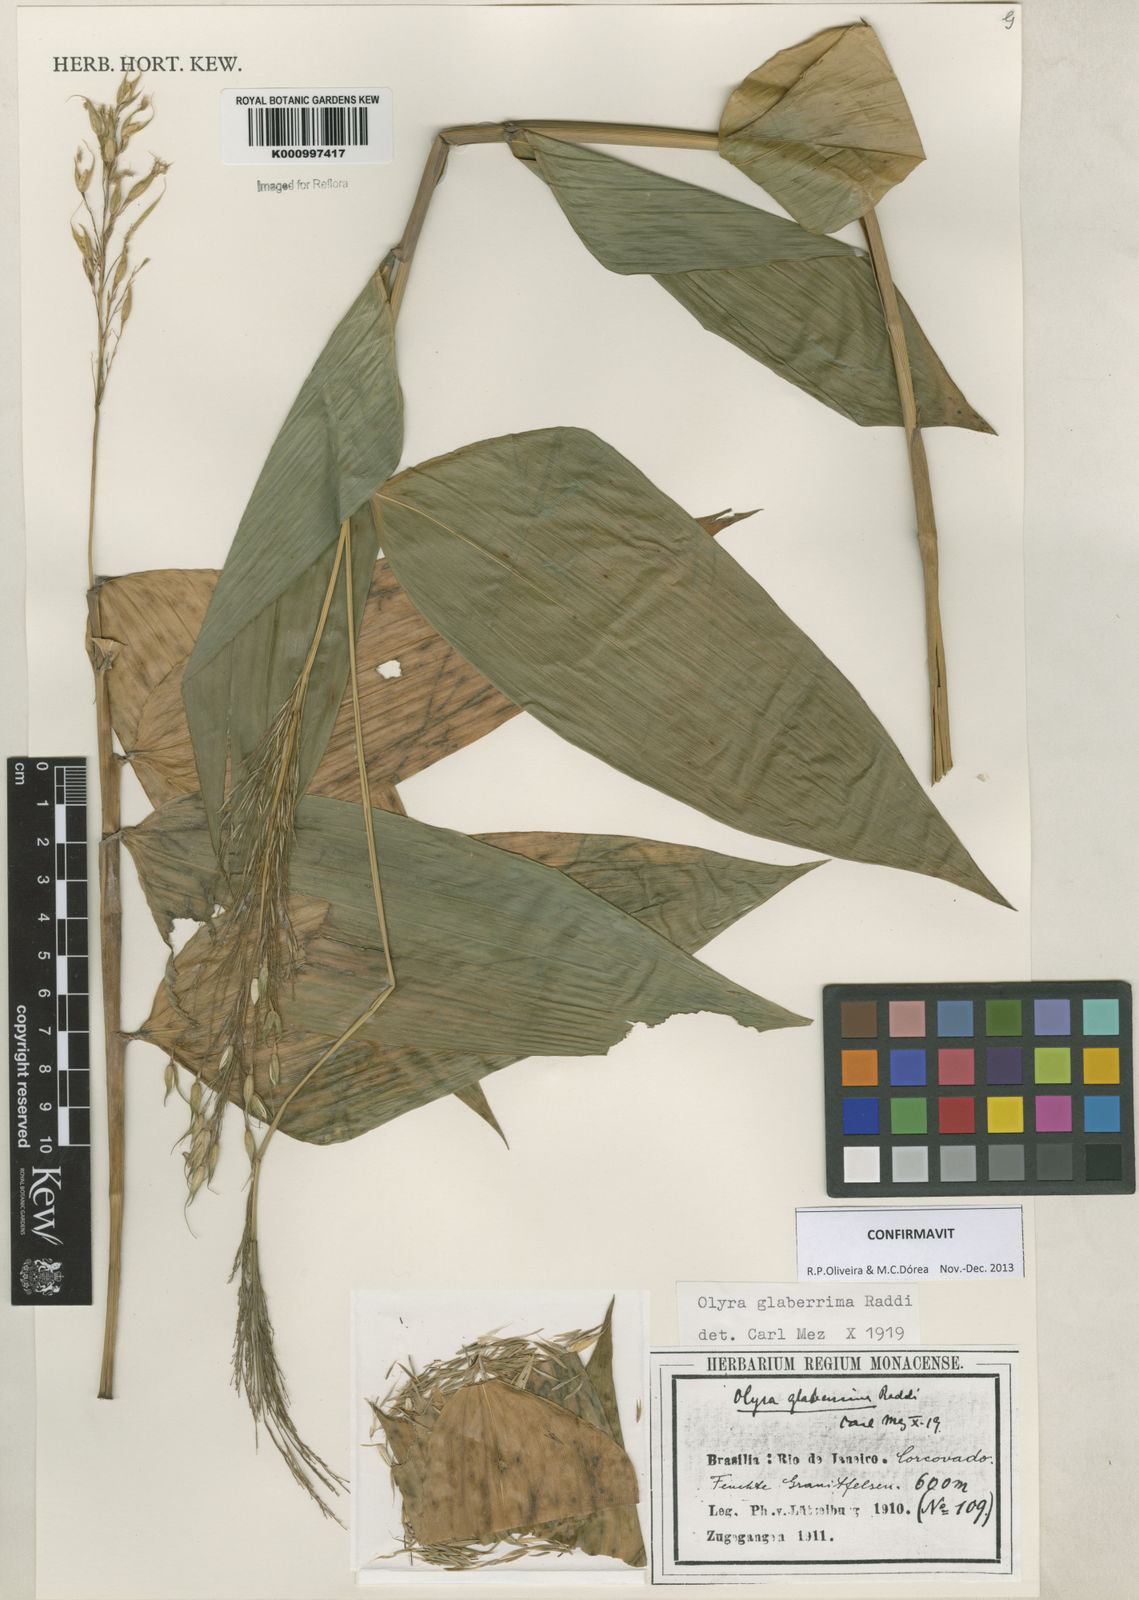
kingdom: Plantae
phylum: Tracheophyta
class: Liliopsida
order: Poales
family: Poaceae
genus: Olyra
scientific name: Olyra glaberrima
